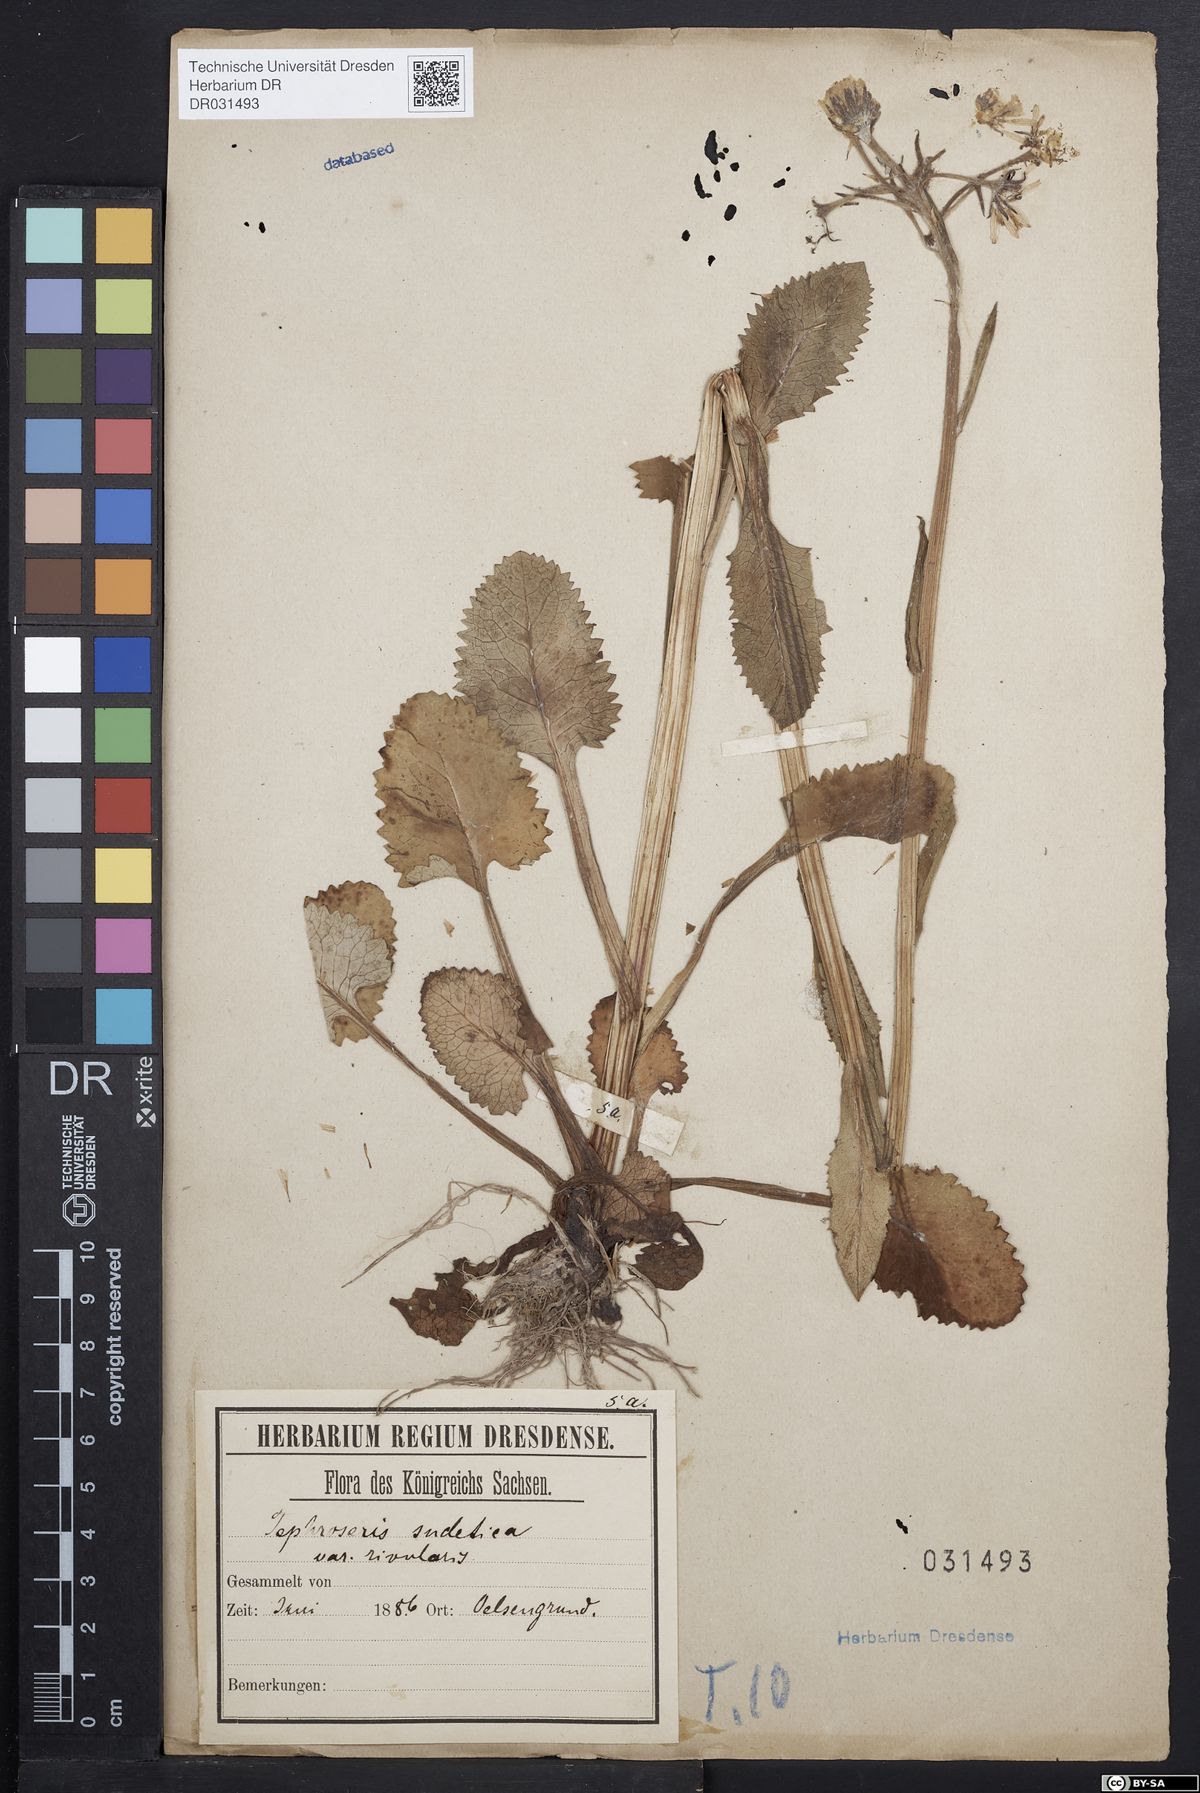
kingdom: Plantae
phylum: Tracheophyta
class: Magnoliopsida
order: Asterales
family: Asteraceae
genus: Tephroseris
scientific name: Tephroseris crispa
